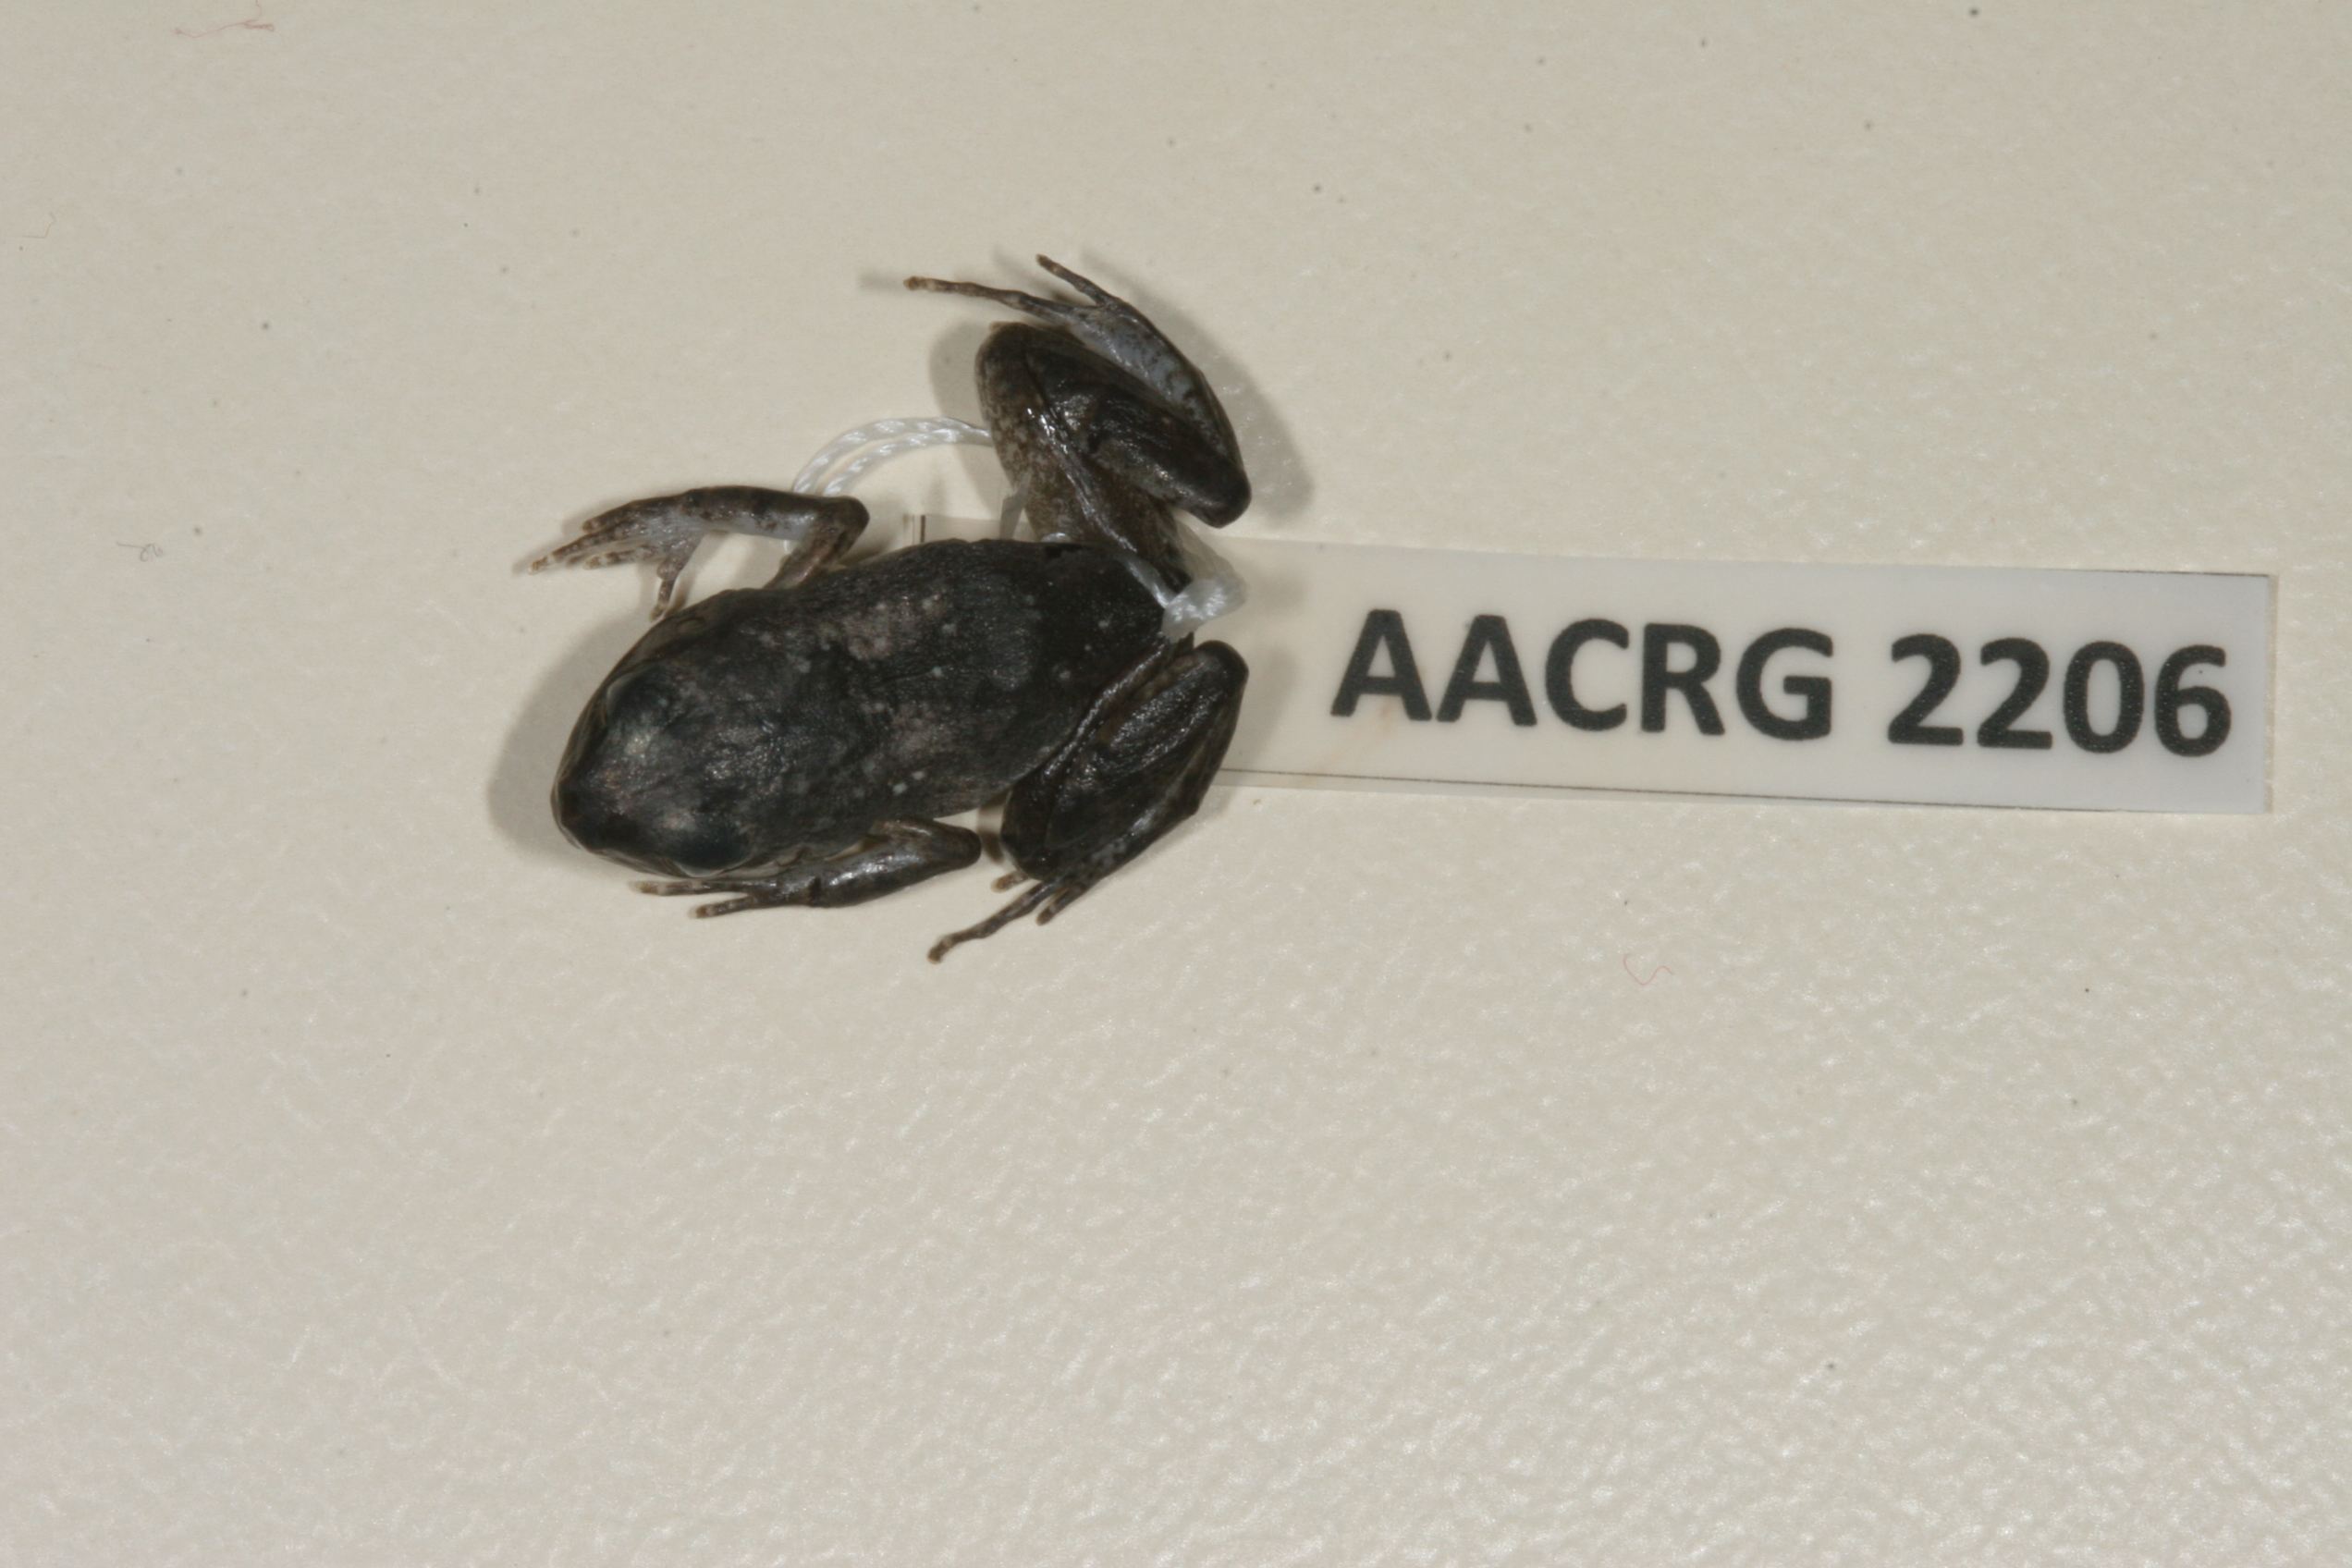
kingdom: Animalia
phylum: Chordata
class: Amphibia
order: Anura
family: Arthroleptidae
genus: Arthroleptis
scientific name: Arthroleptis wahlbergii
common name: Bush squeaker
